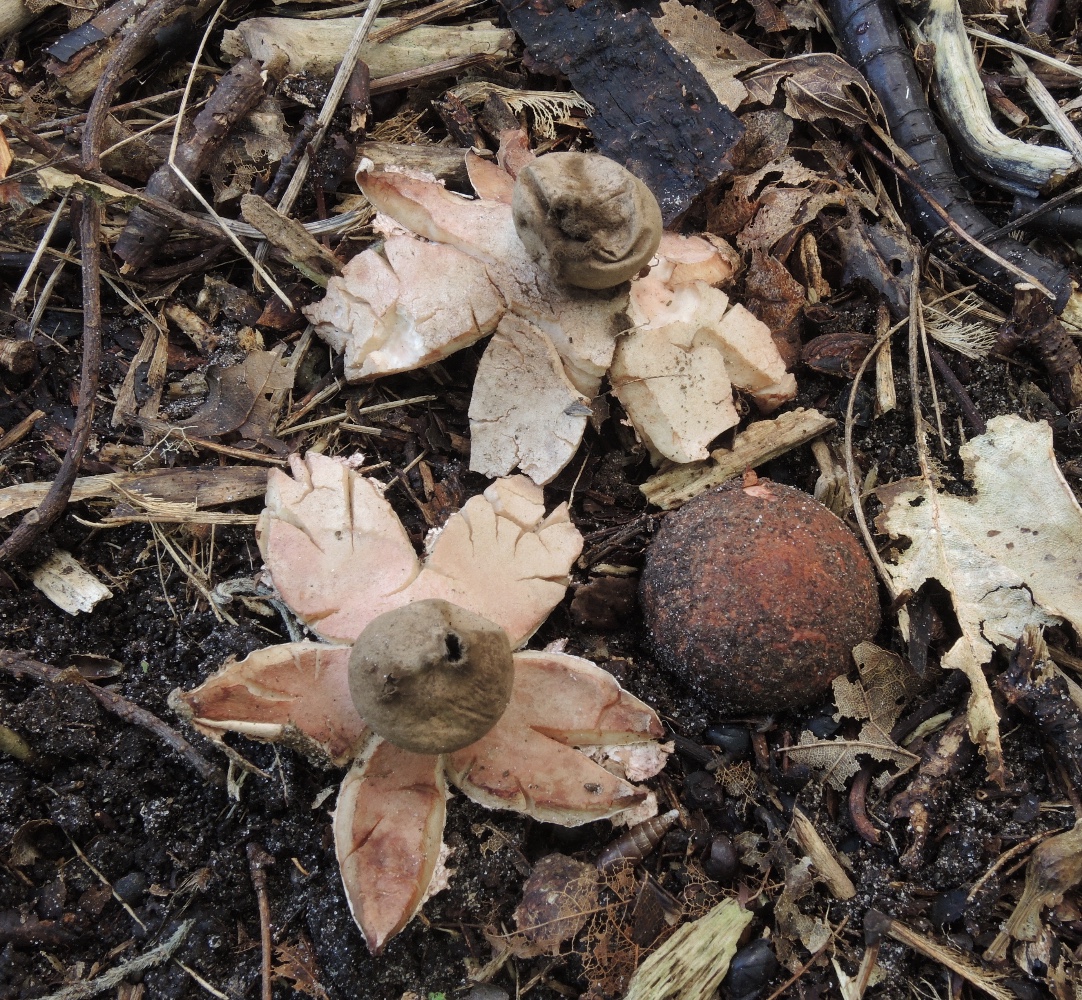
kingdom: Fungi
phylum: Basidiomycota
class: Agaricomycetes
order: Geastrales
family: Geastraceae
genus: Geastrum
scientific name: Geastrum rufescens
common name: kødfarvet stjernebold
